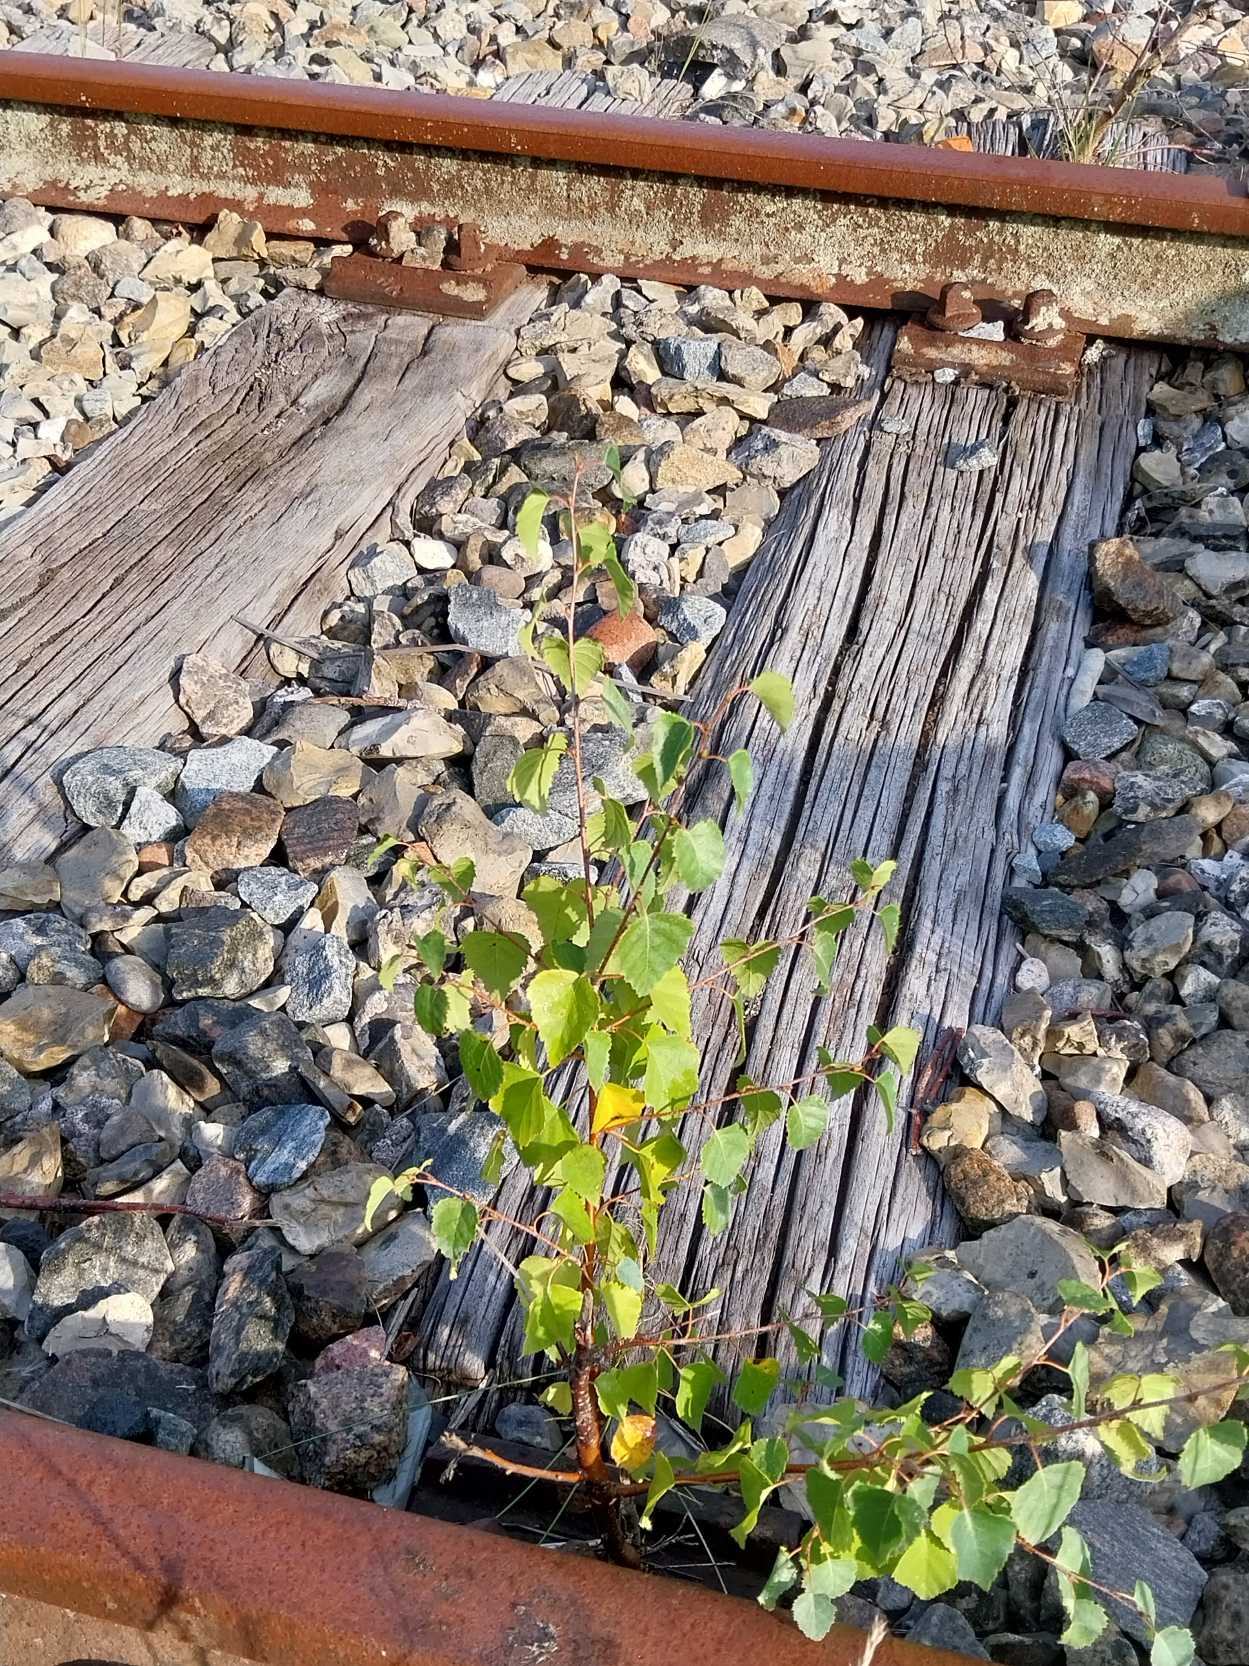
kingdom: Plantae
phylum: Tracheophyta
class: Magnoliopsida
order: Fagales
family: Betulaceae
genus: Betula
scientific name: Betula pendula
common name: Vorte-birk
